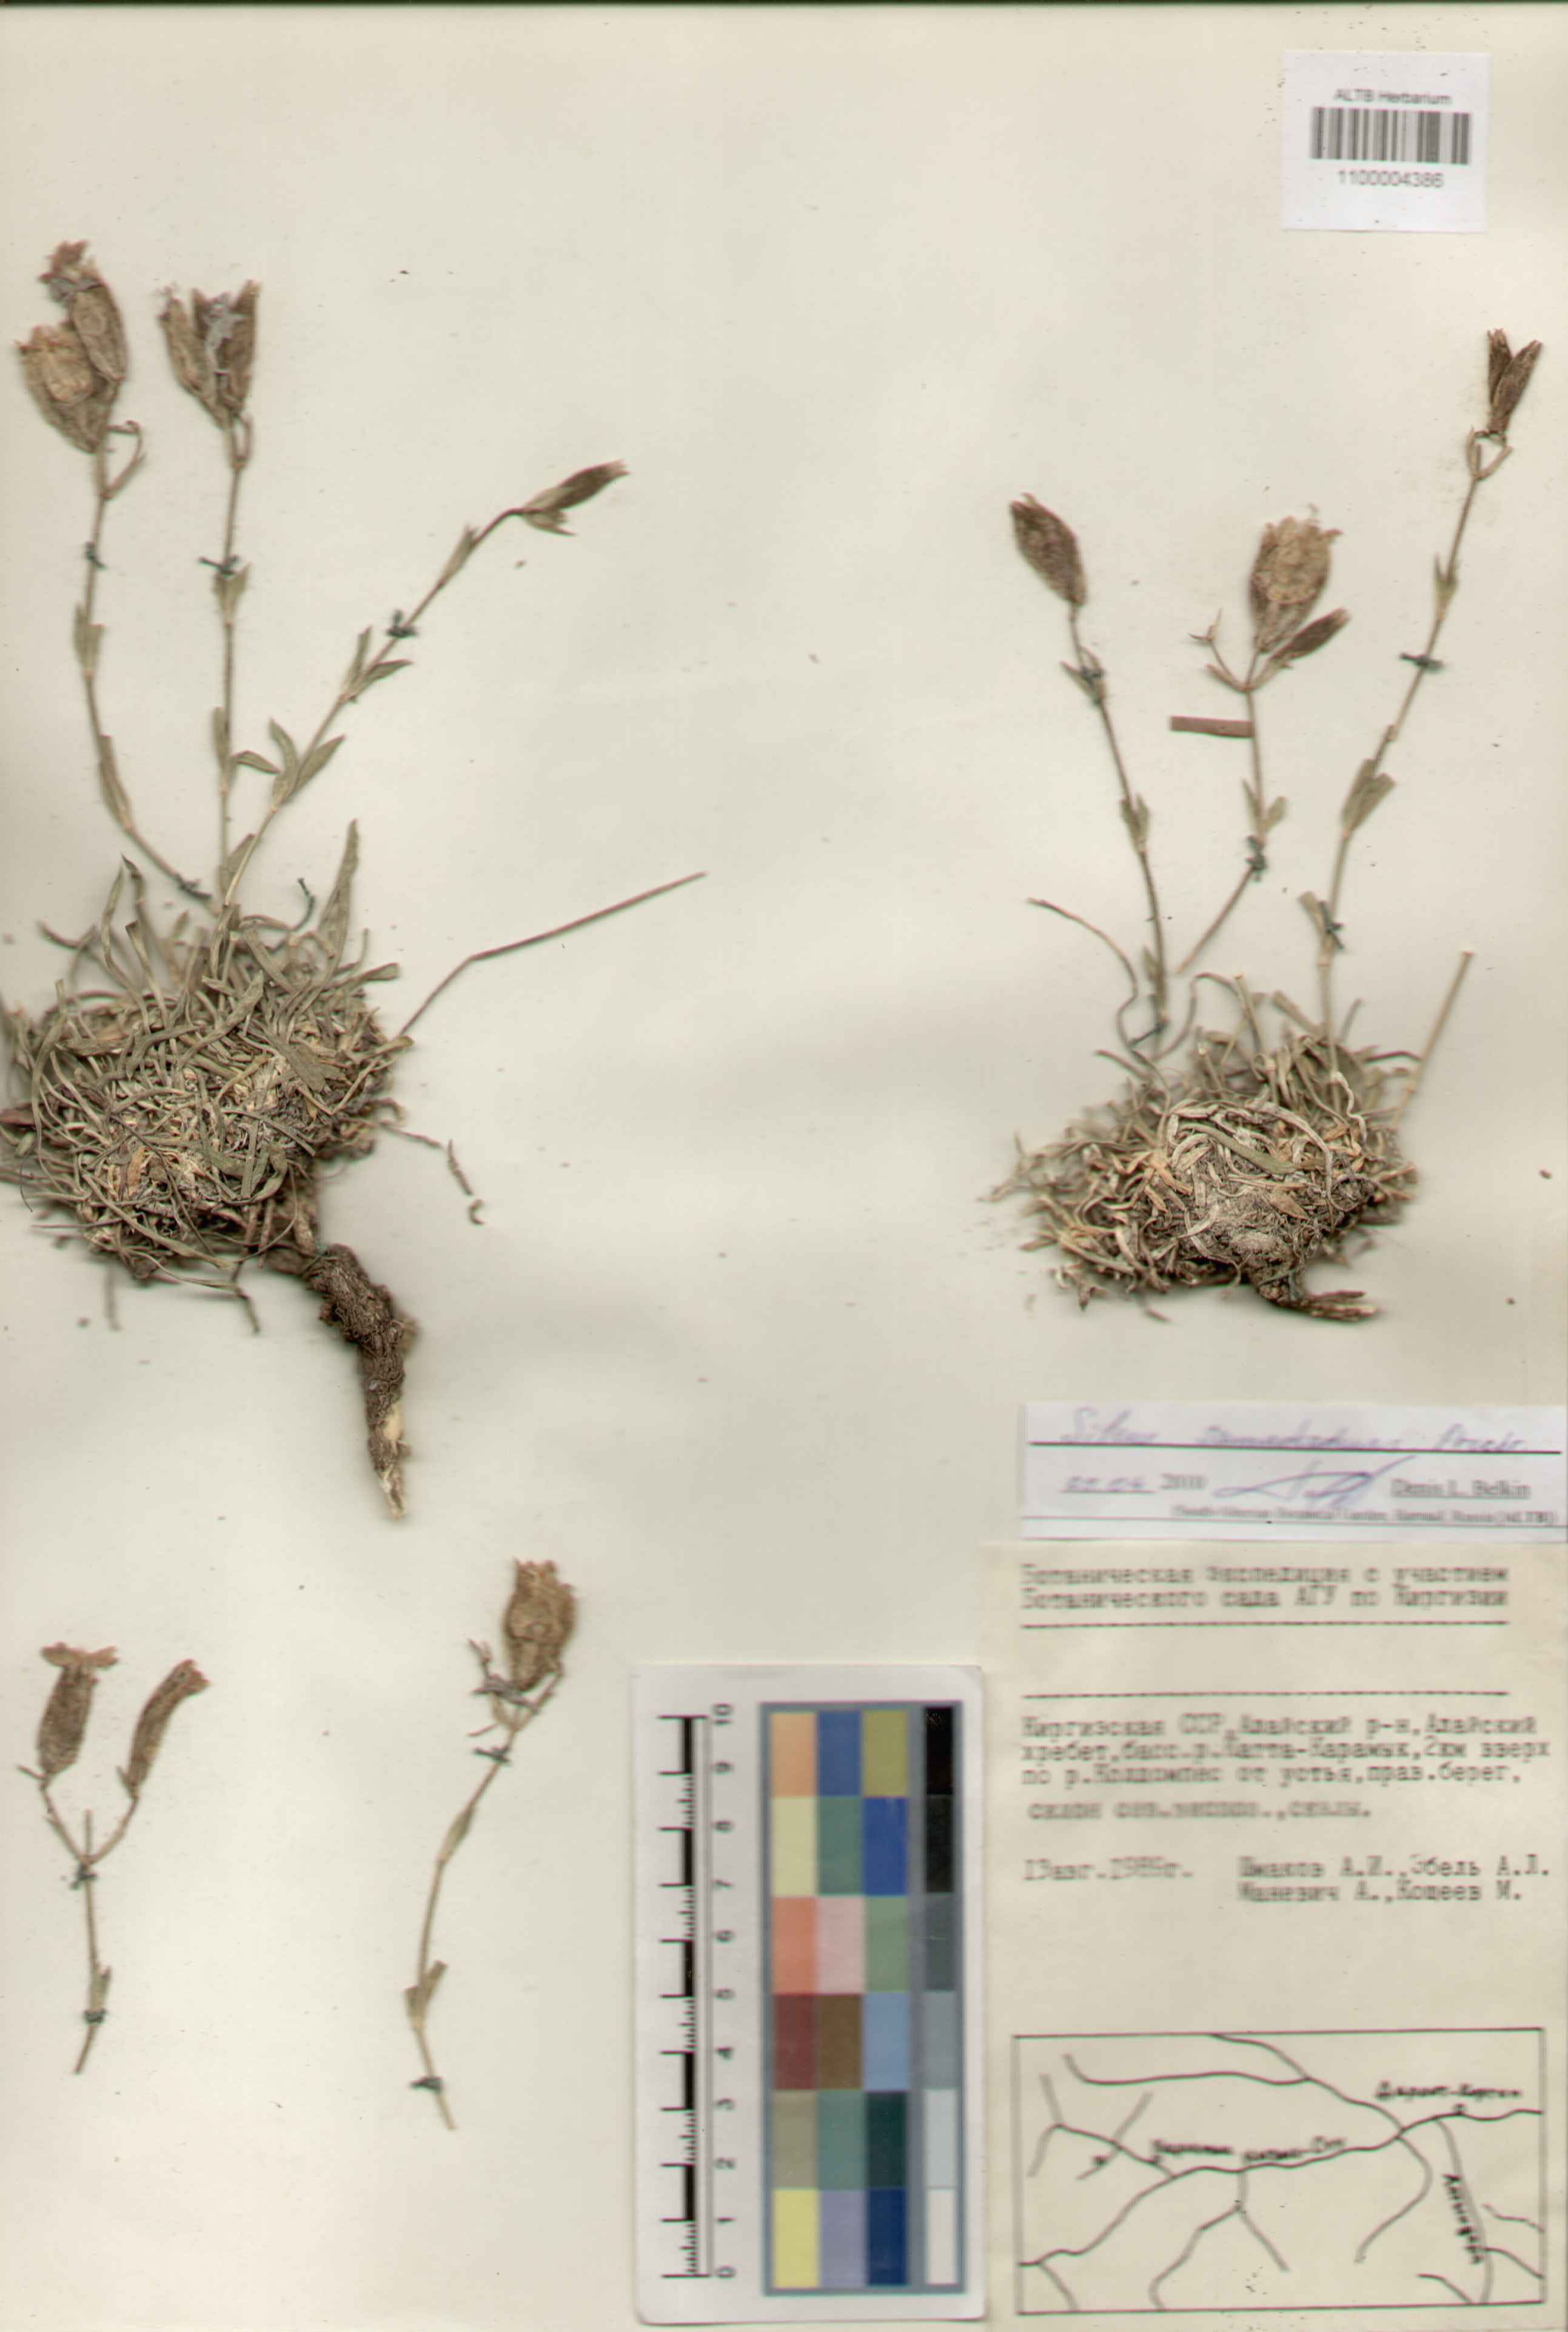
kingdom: Plantae
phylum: Tracheophyta
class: Magnoliopsida
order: Caryophyllales
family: Caryophyllaceae
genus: Silene
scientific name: Silene samarkandensis
